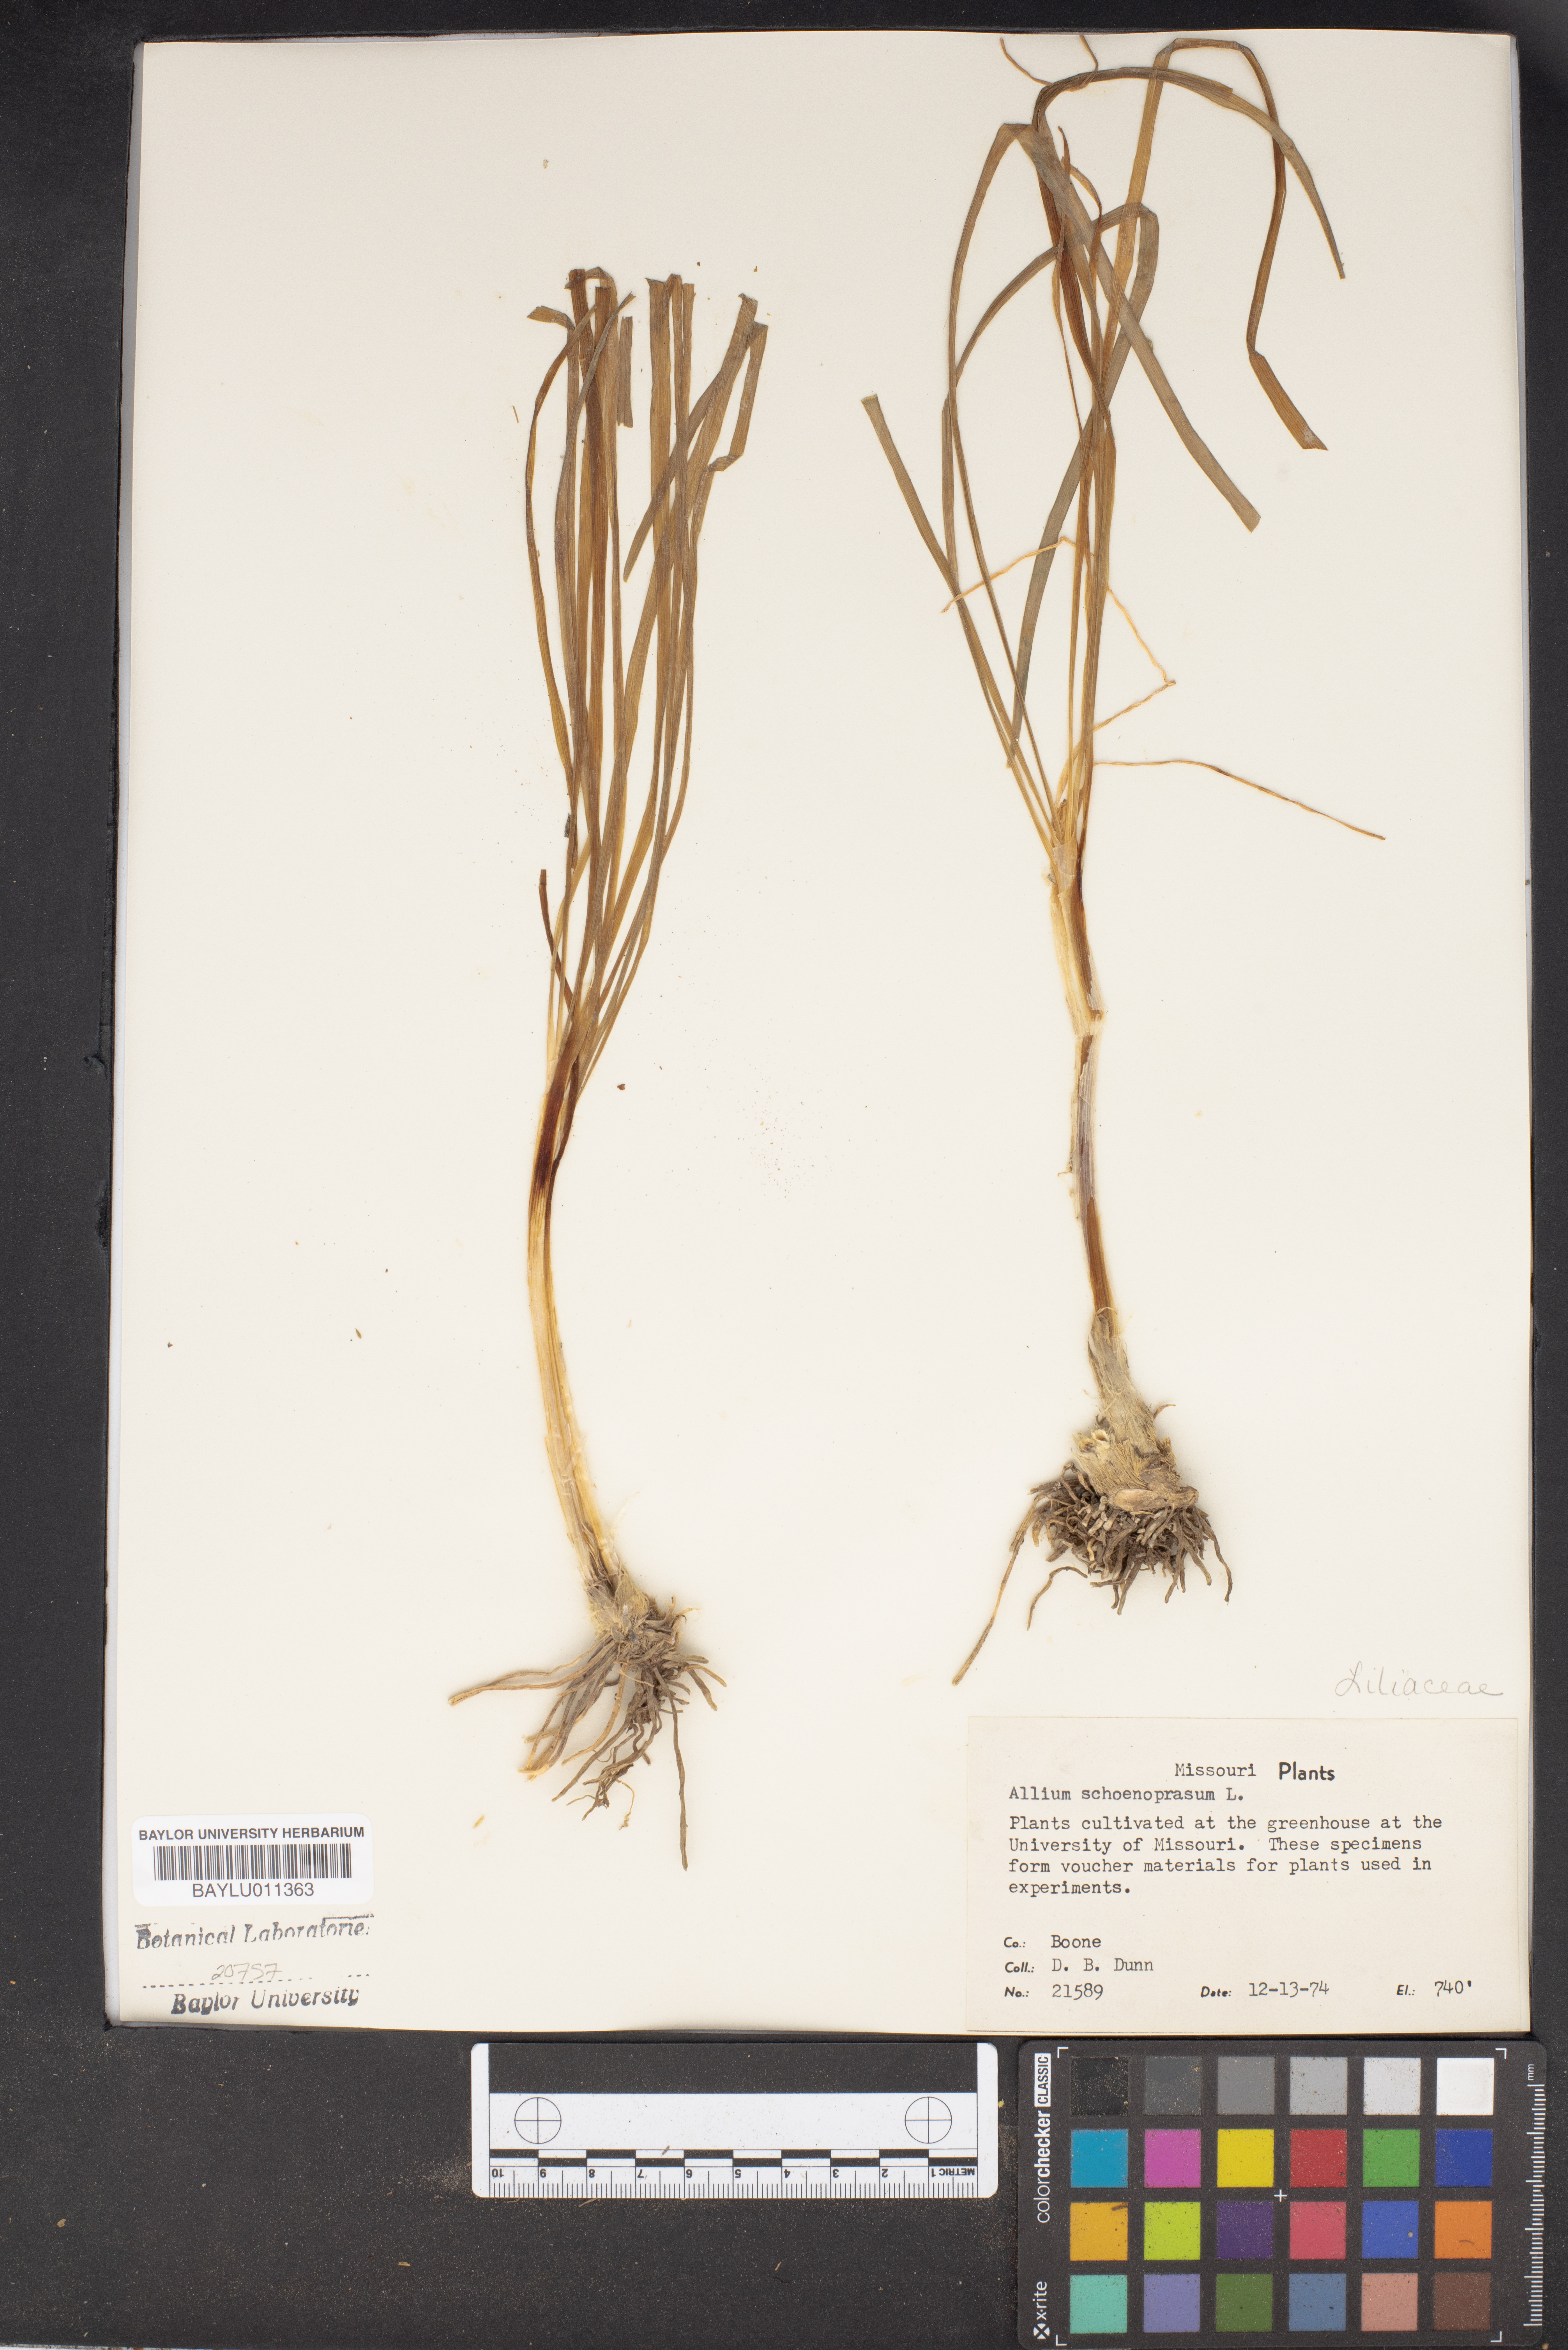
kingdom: Plantae
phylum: Tracheophyta
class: Liliopsida
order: Asparagales
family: Amaryllidaceae
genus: Allium
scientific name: Allium schoenoprasum
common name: Chives
